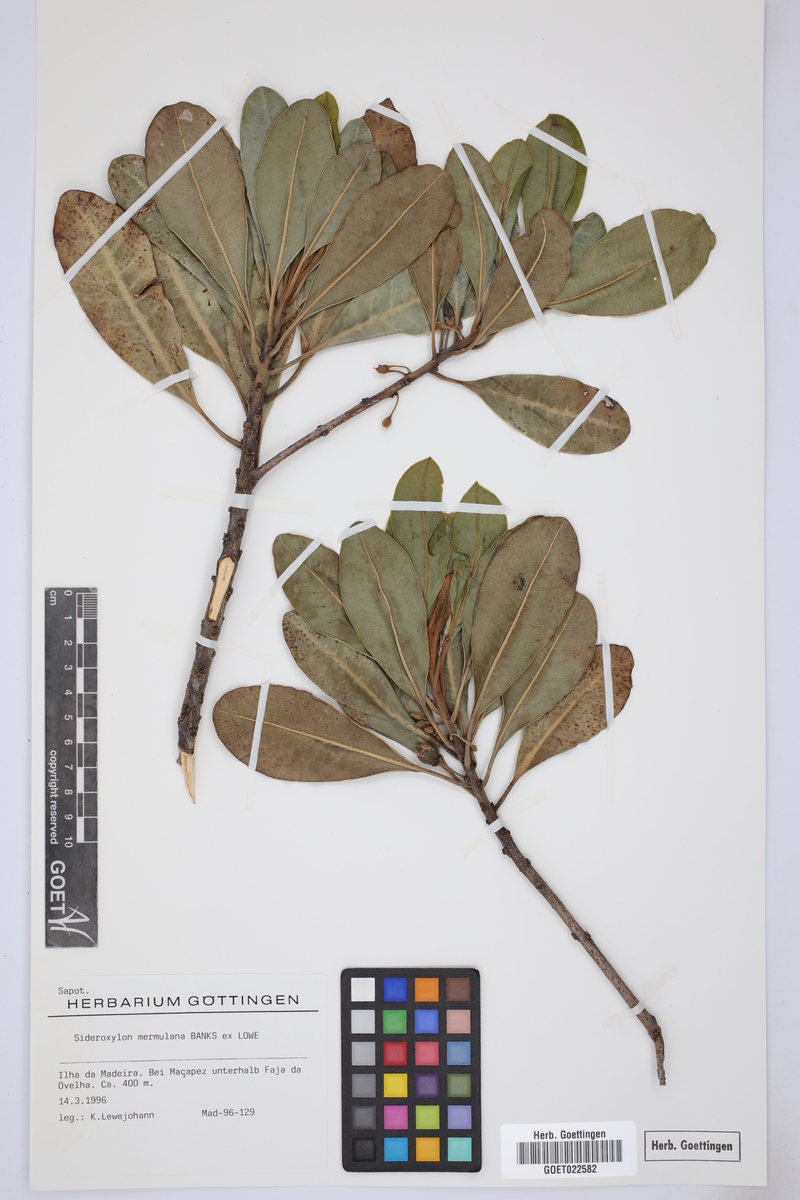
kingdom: Plantae
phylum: Tracheophyta
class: Magnoliopsida
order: Ericales
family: Sapotaceae
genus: Sideroxylon
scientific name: Sideroxylon mirmulano
